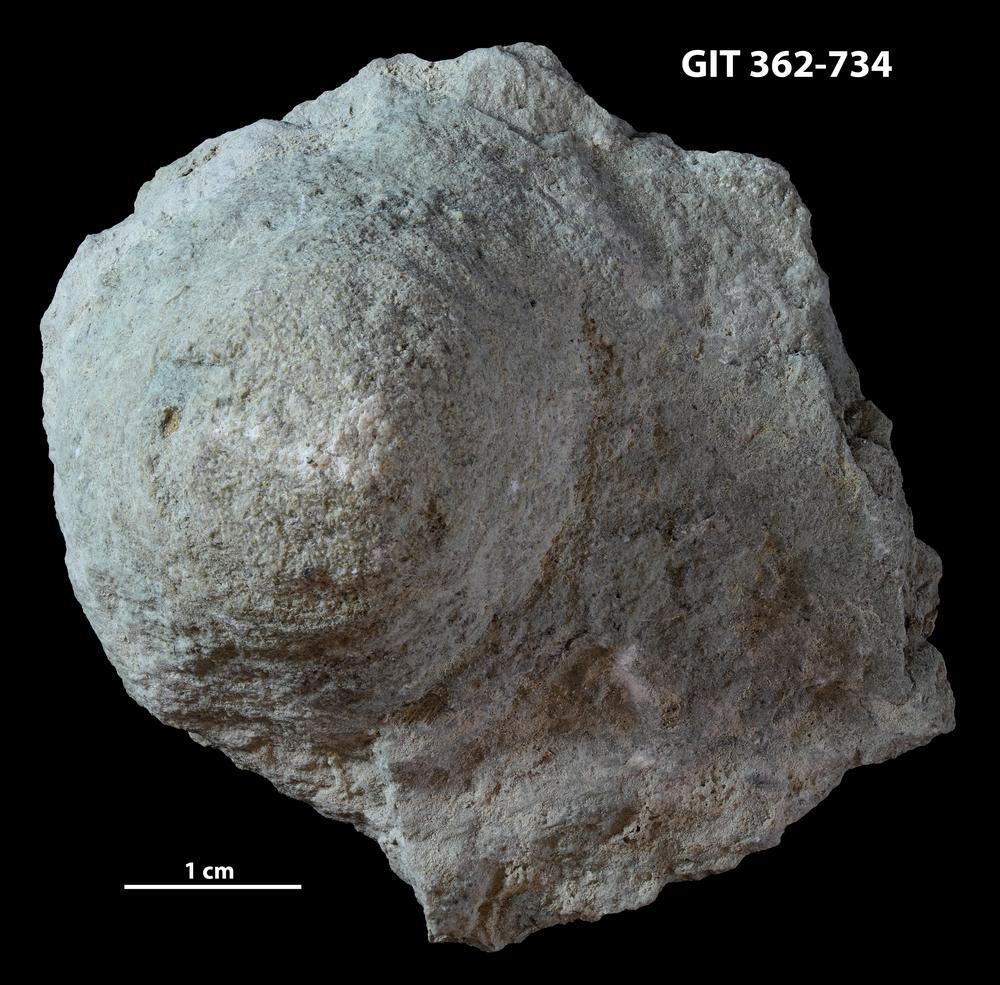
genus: Conichnus
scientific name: Conichnus
